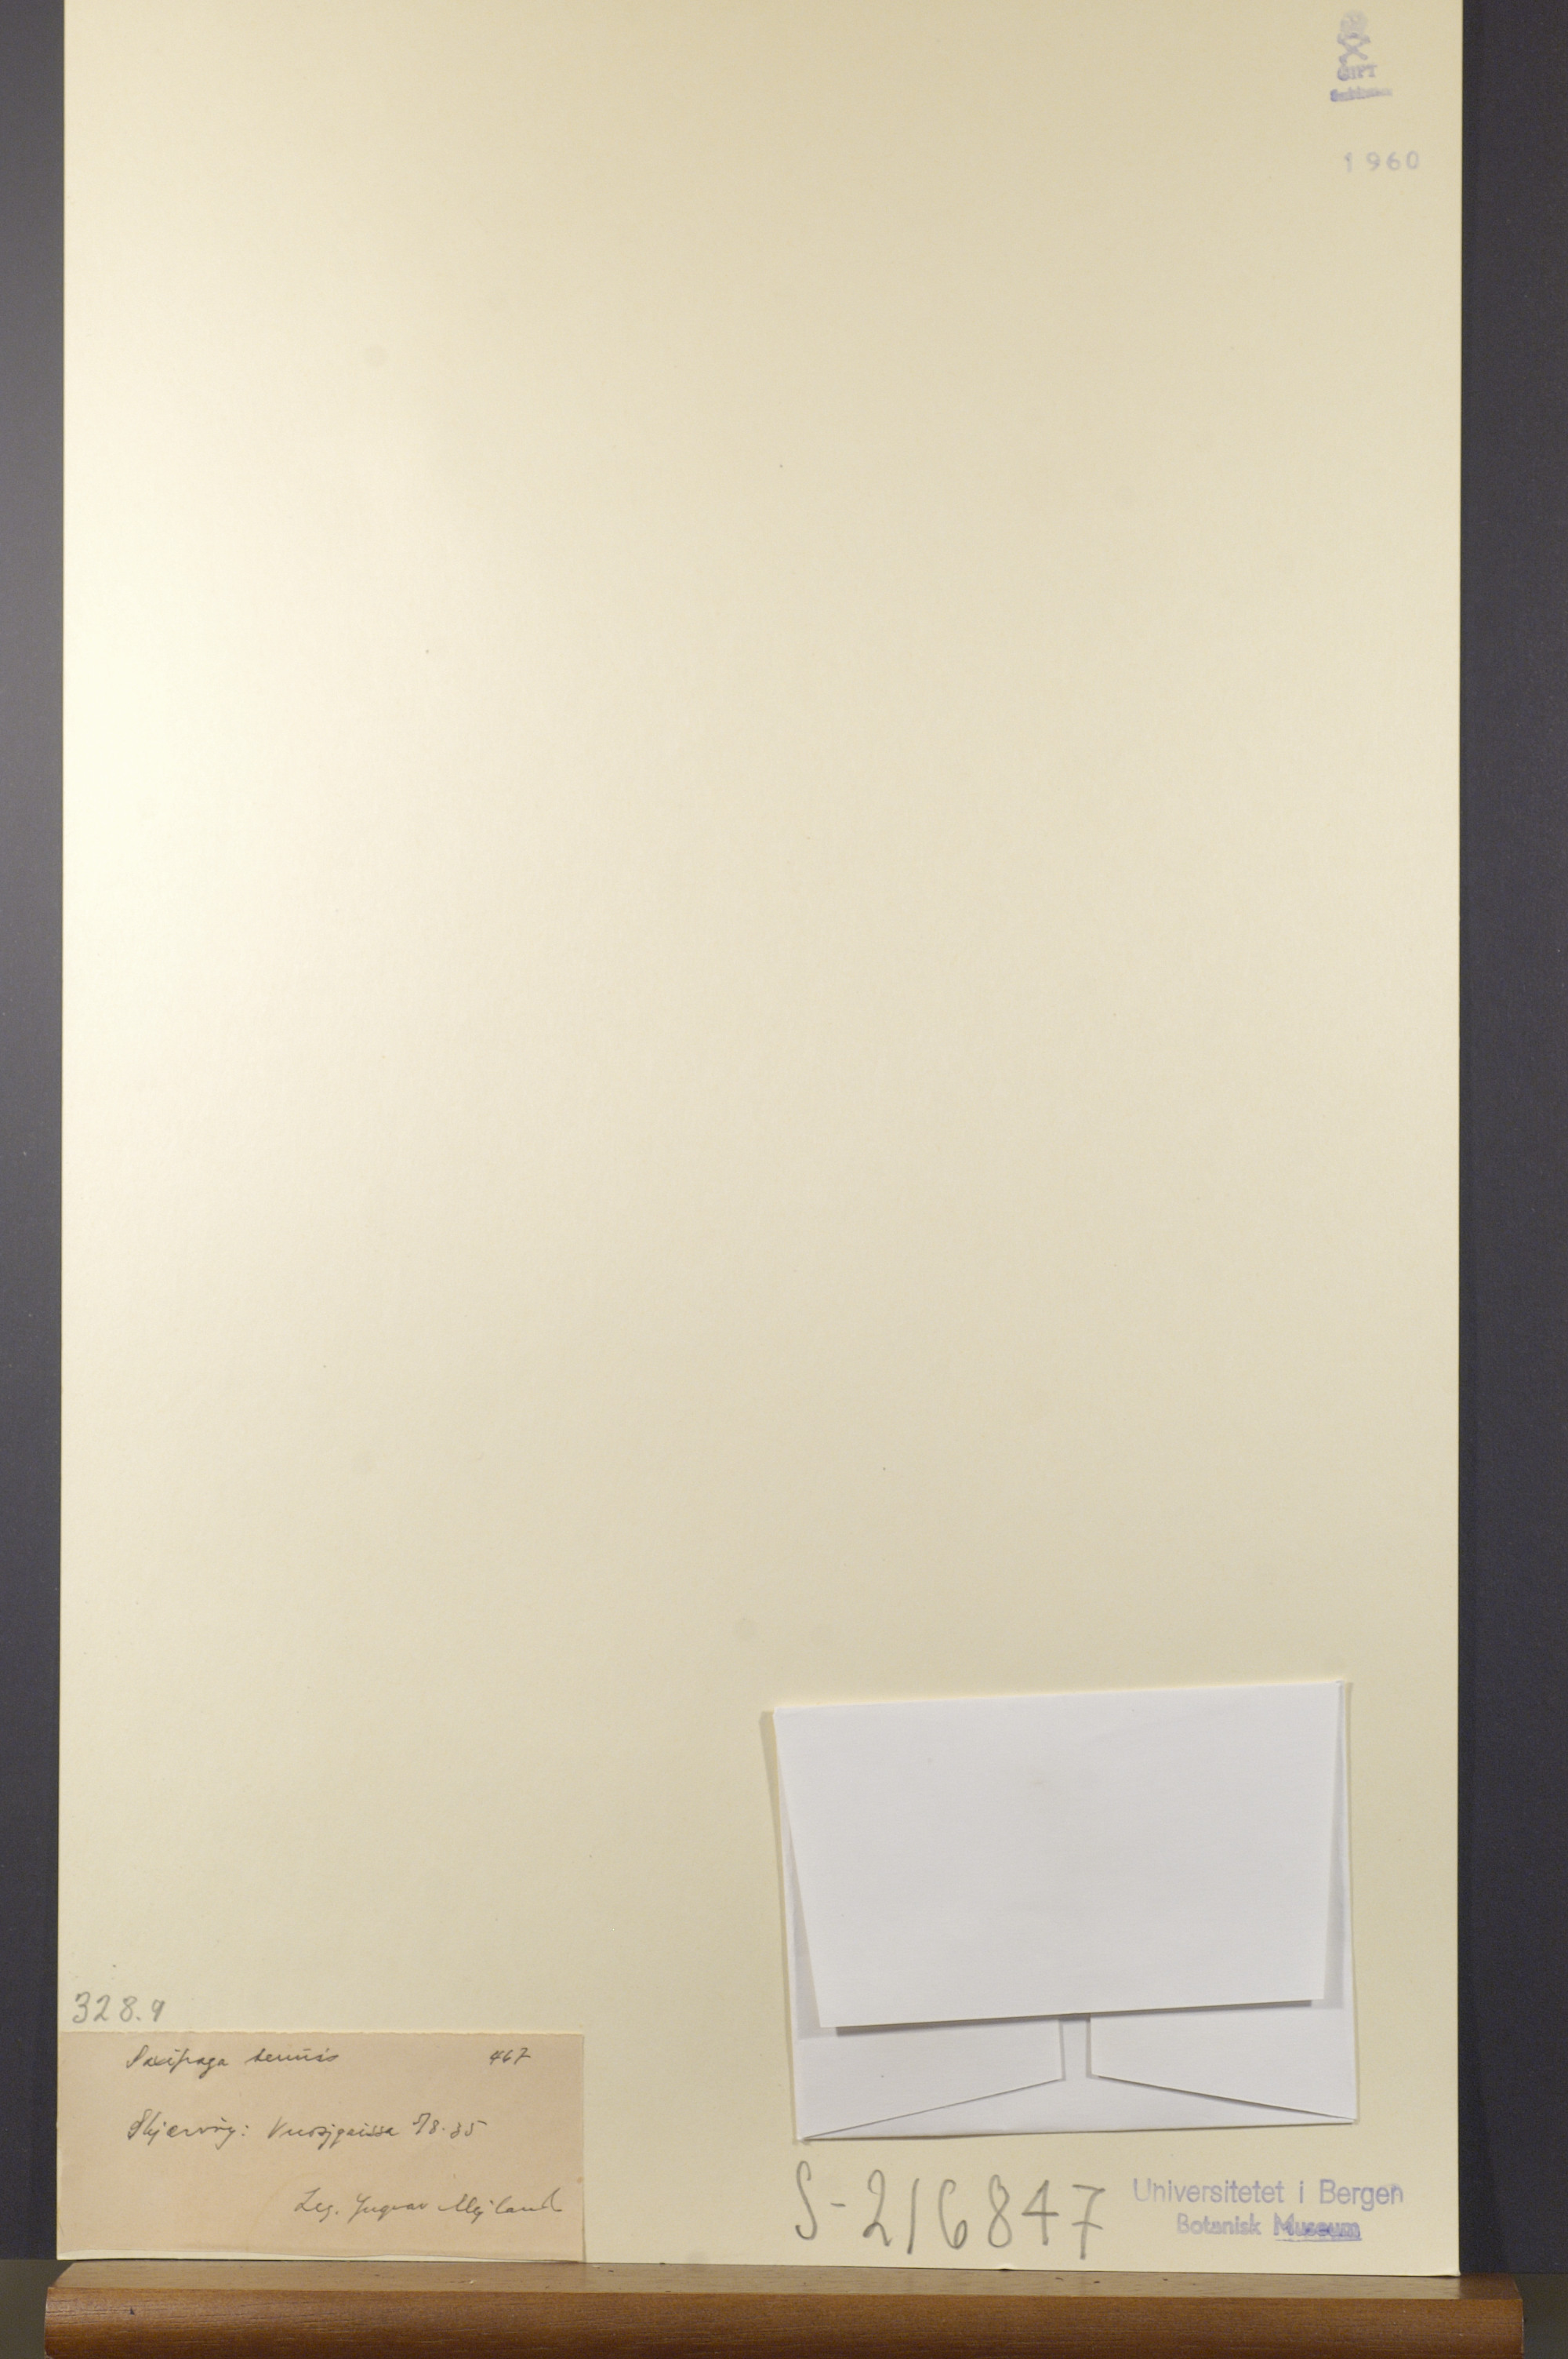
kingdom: Plantae
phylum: Tracheophyta
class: Magnoliopsida
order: Saxifragales
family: Saxifragaceae
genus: Micranthes
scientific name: Micranthes tenuis
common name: Ottertail pass saxifrage
